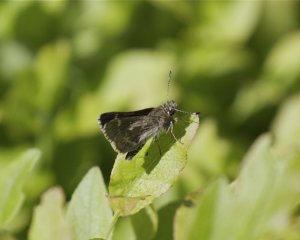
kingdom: Animalia
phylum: Arthropoda
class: Insecta
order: Lepidoptera
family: Hesperiidae
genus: Mastor
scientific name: Mastor hegon
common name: Pepper and Salt Skipper
